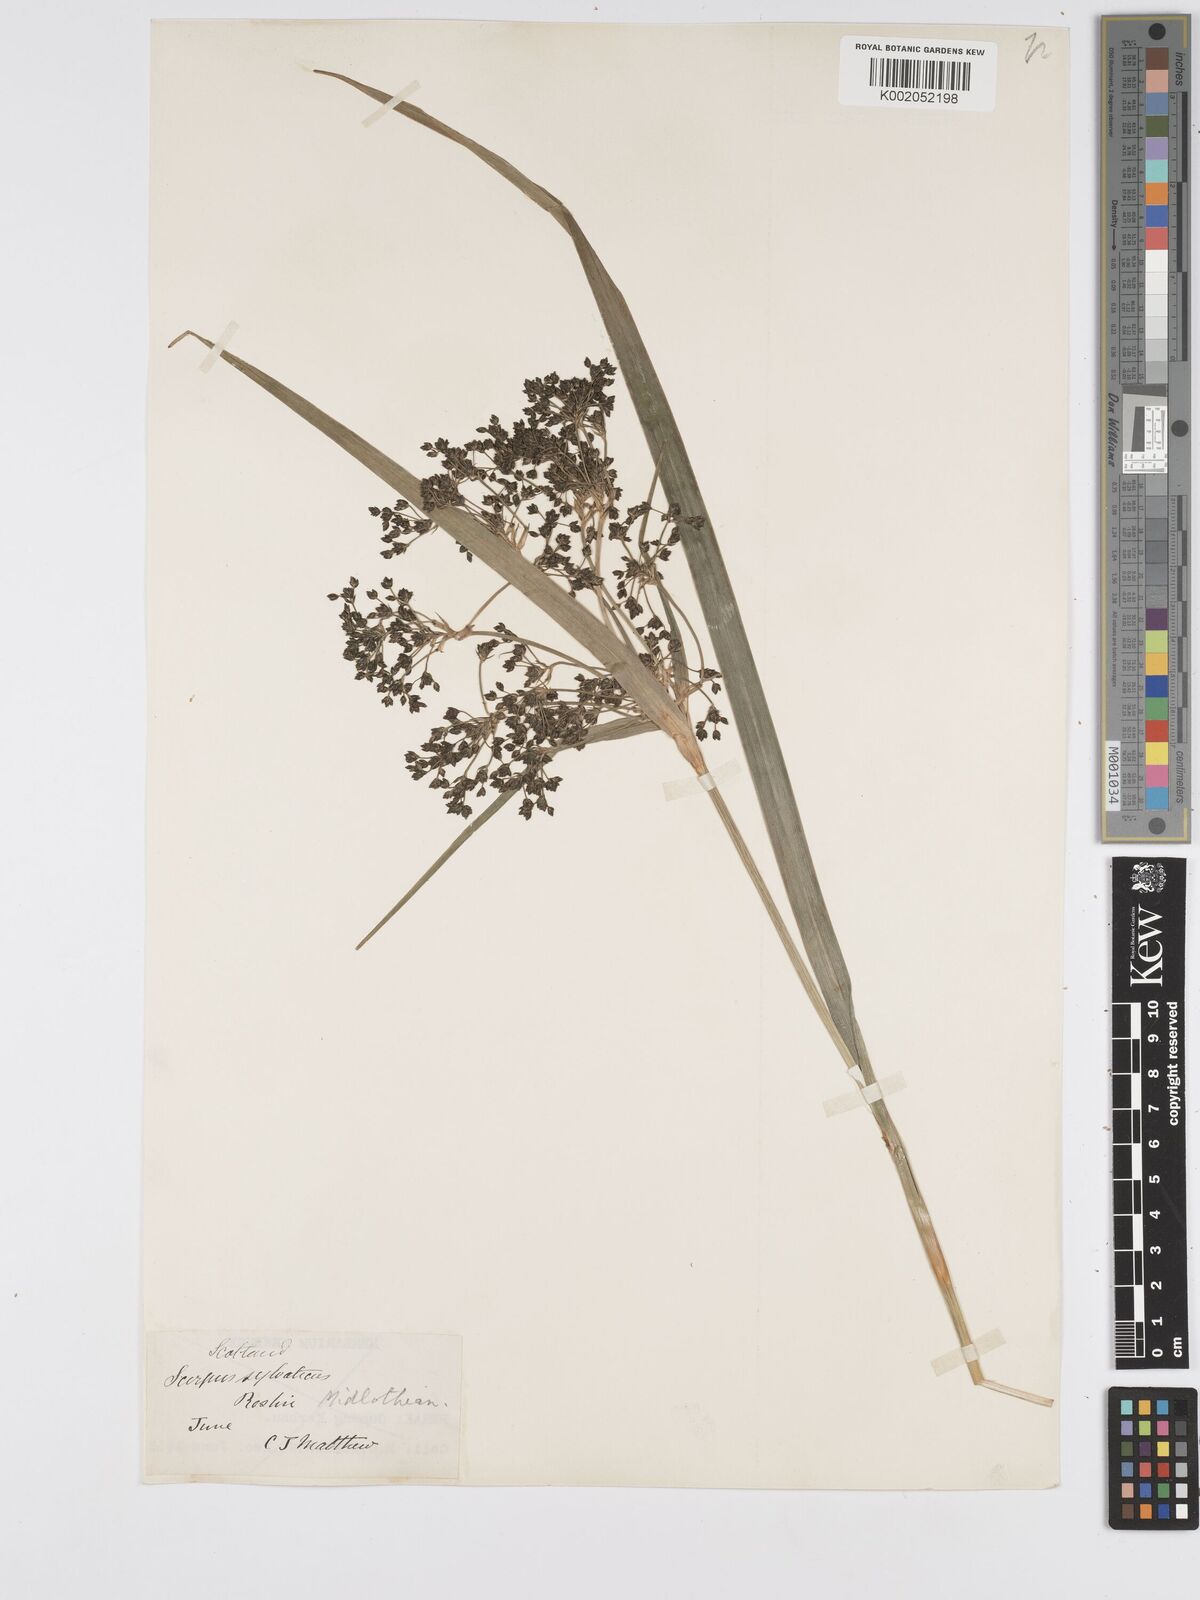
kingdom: Plantae
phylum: Tracheophyta
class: Liliopsida
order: Poales
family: Cyperaceae
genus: Scirpus
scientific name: Scirpus sylvaticus
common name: Wood club-rush
